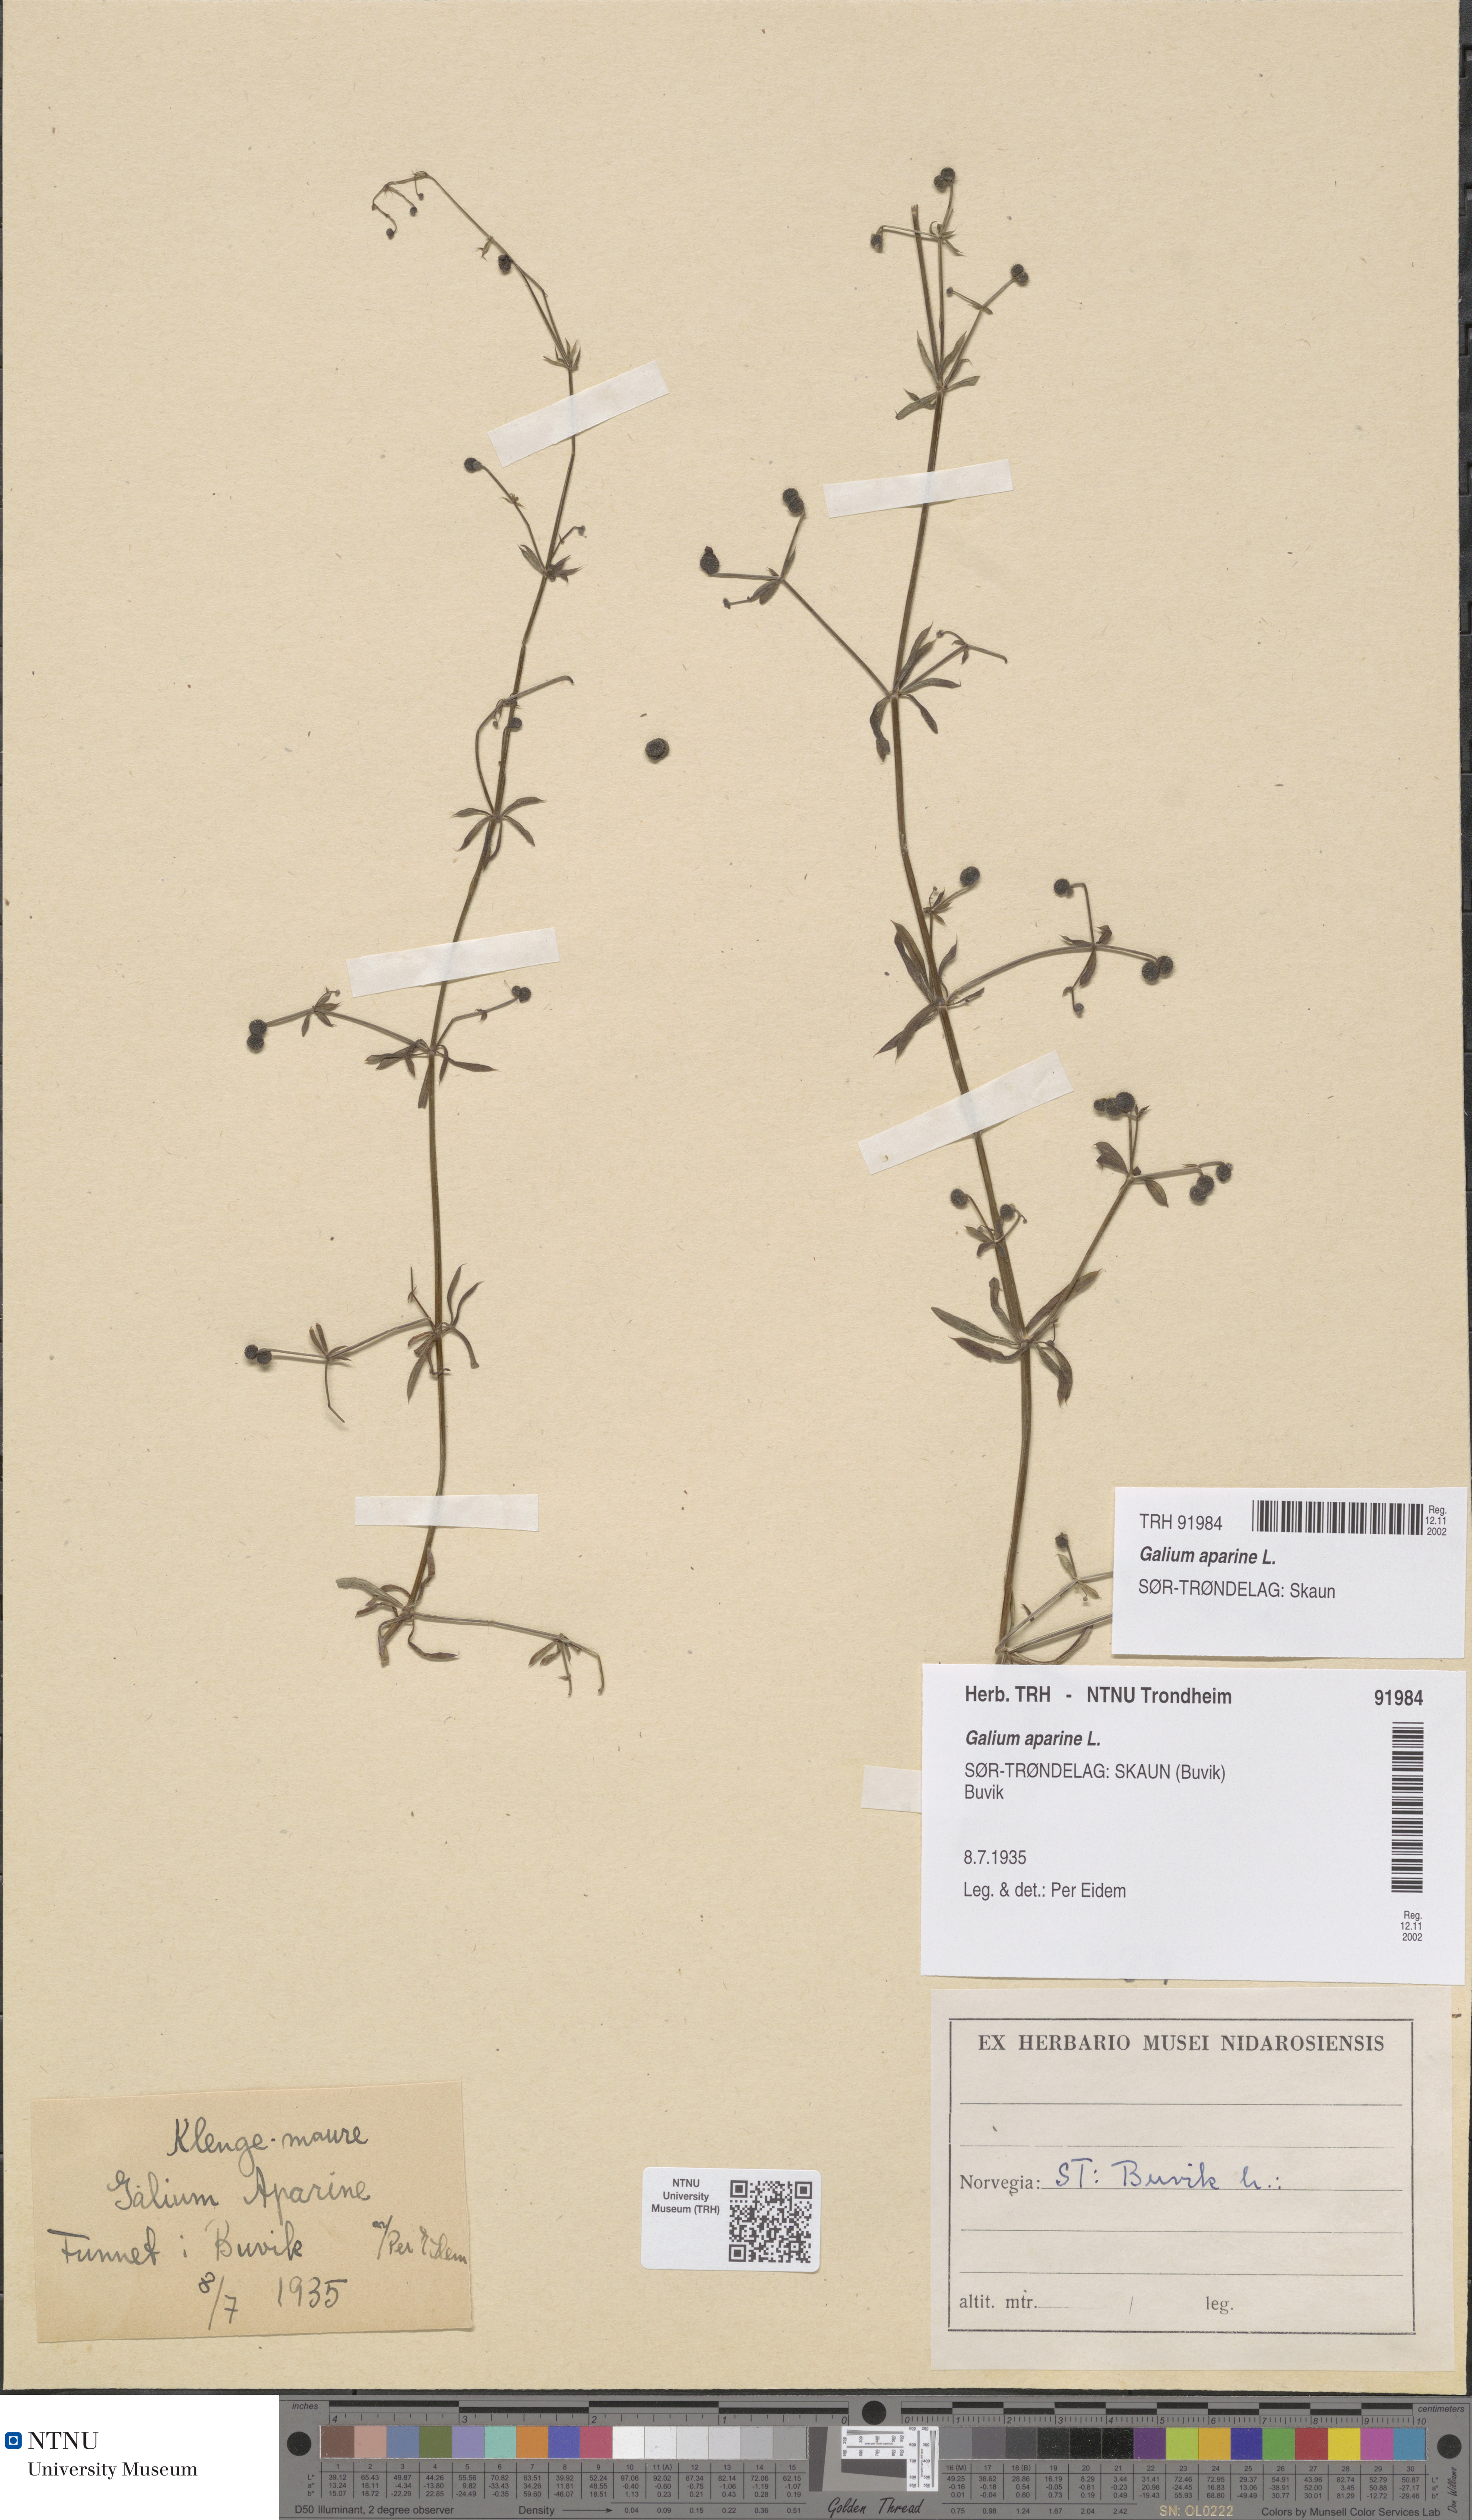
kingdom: Plantae
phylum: Tracheophyta
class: Magnoliopsida
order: Gentianales
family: Rubiaceae
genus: Galium
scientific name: Galium aparine
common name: Cleavers
